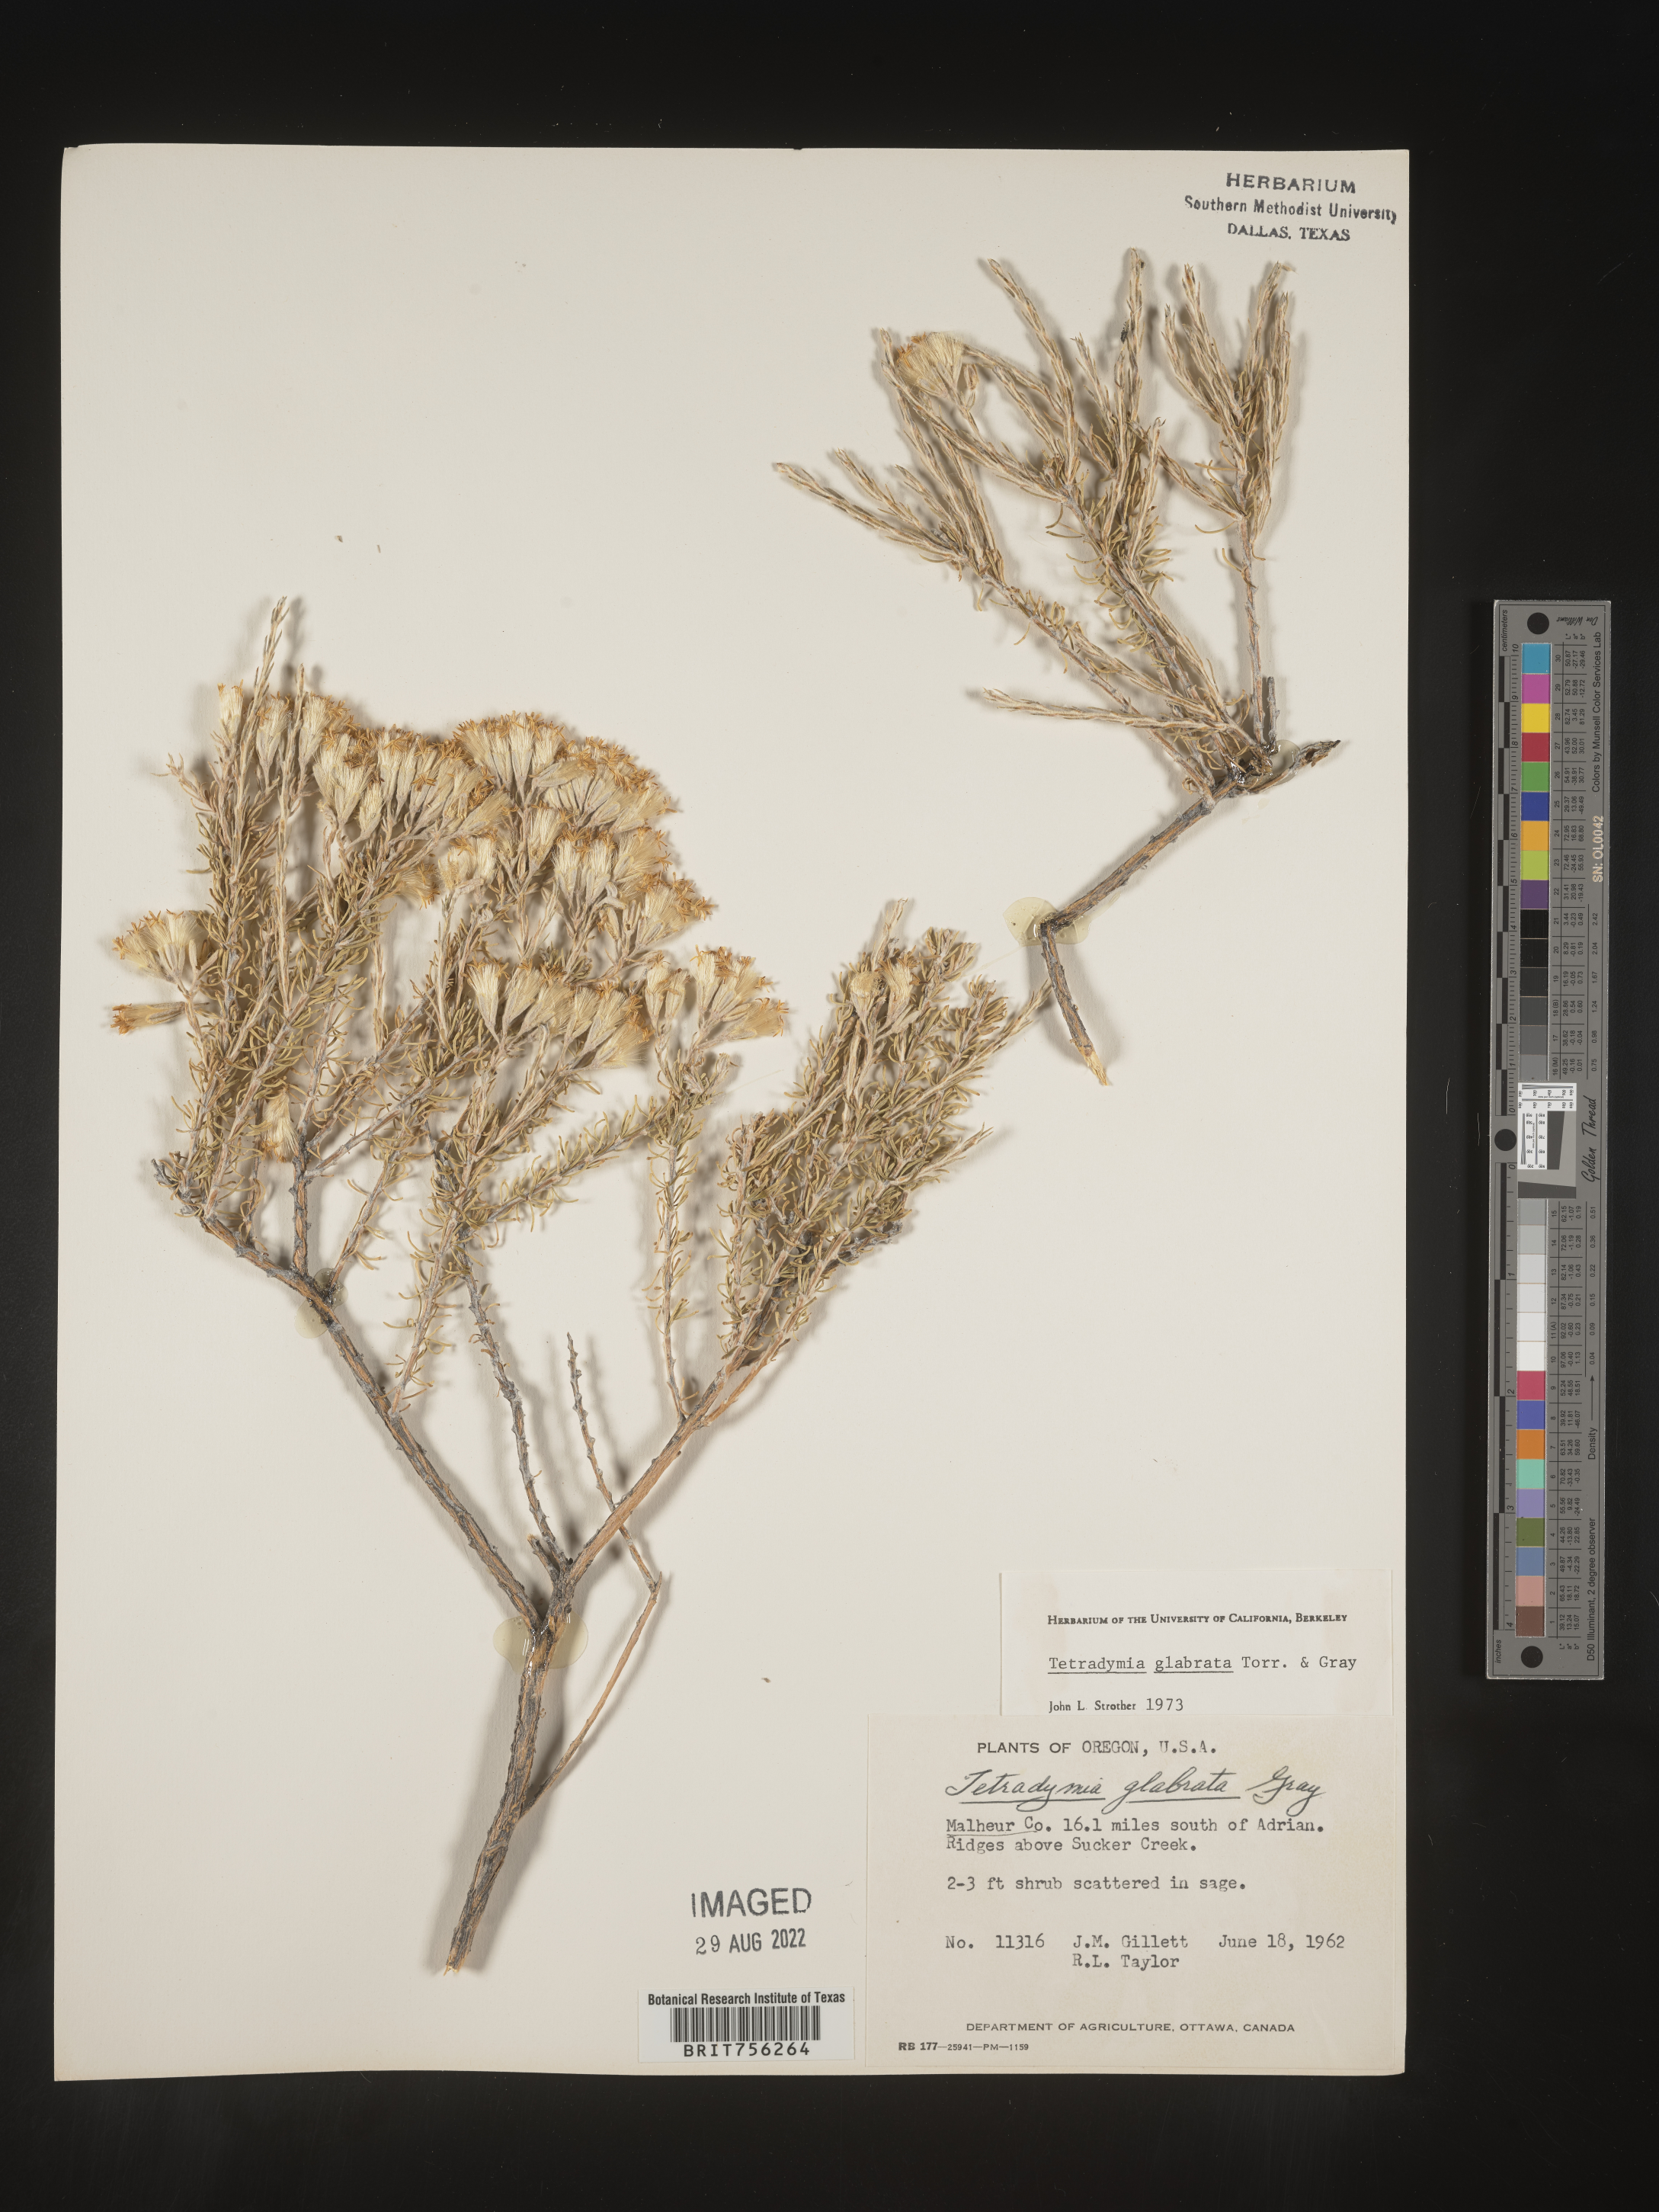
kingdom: Plantae
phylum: Tracheophyta
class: Magnoliopsida
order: Asterales
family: Asteraceae
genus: Tetradymia
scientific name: Tetradymia glabrata
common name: Smooth tetradymia
